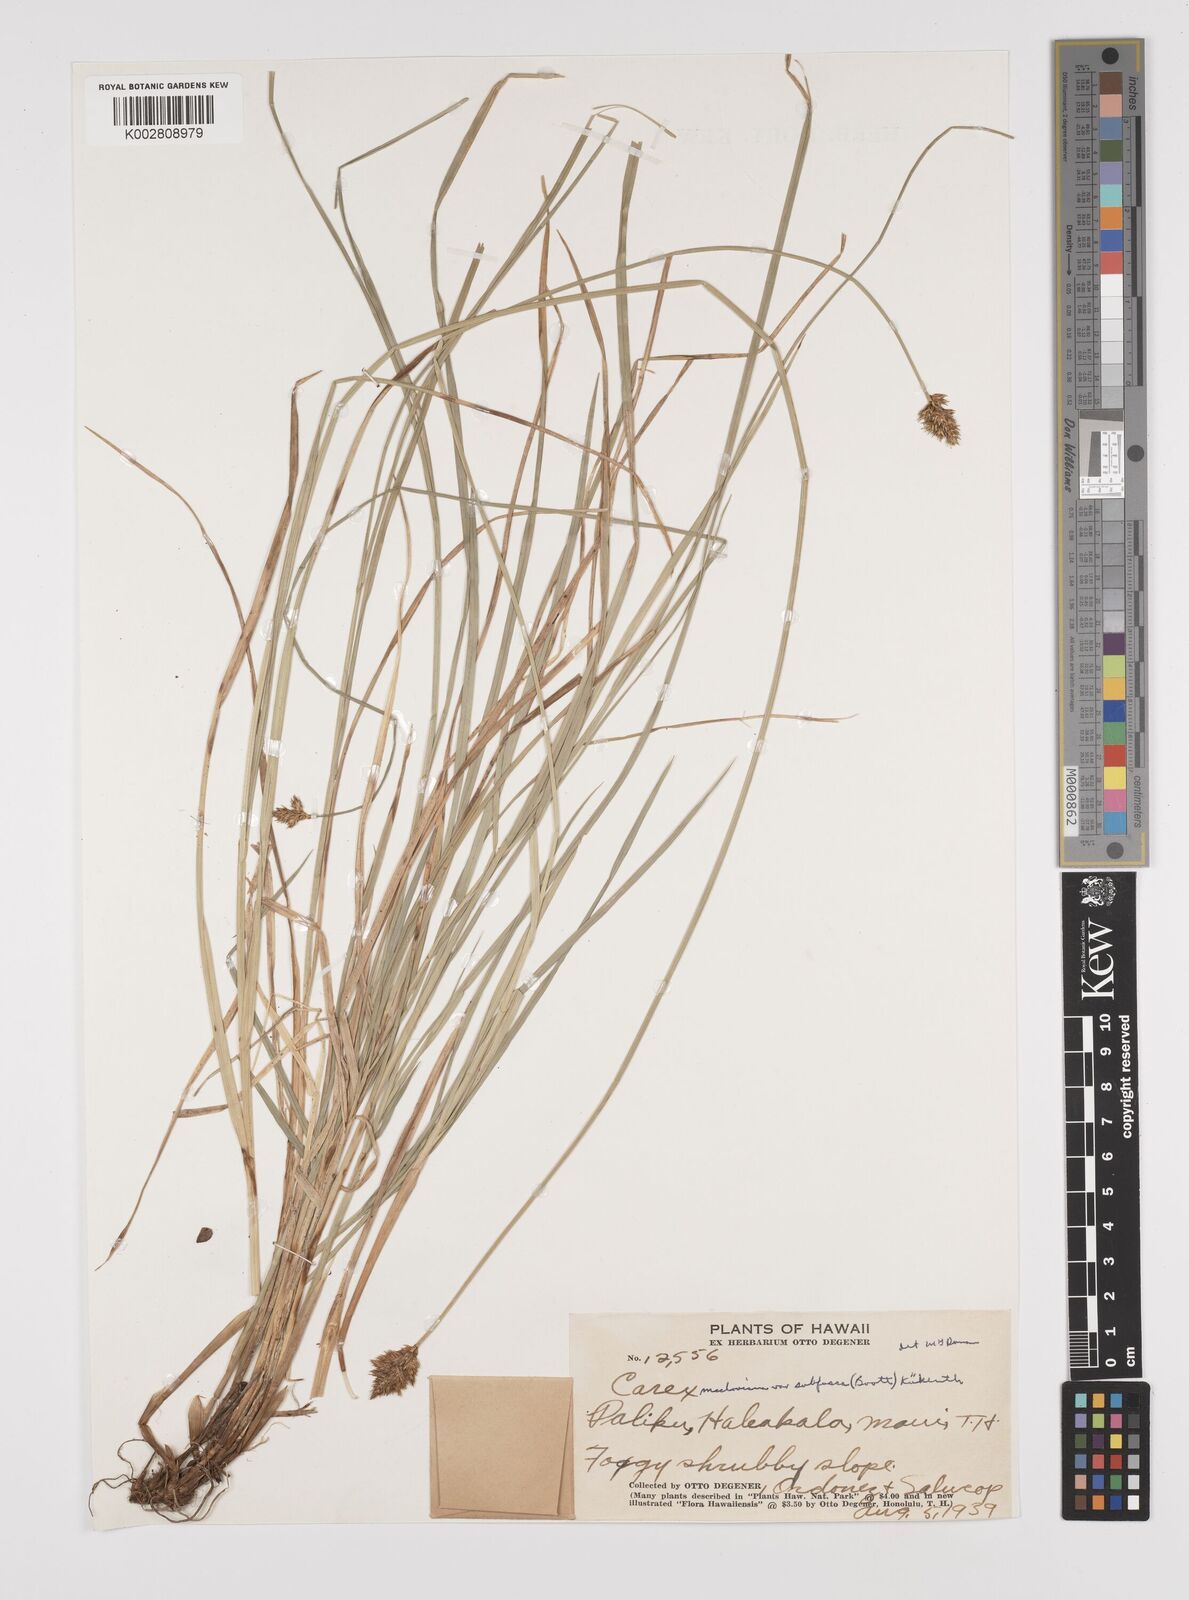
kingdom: Plantae
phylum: Tracheophyta
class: Liliopsida
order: Poales
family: Cyperaceae
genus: Carex
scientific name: Carex subfusca
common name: Brown sedge
